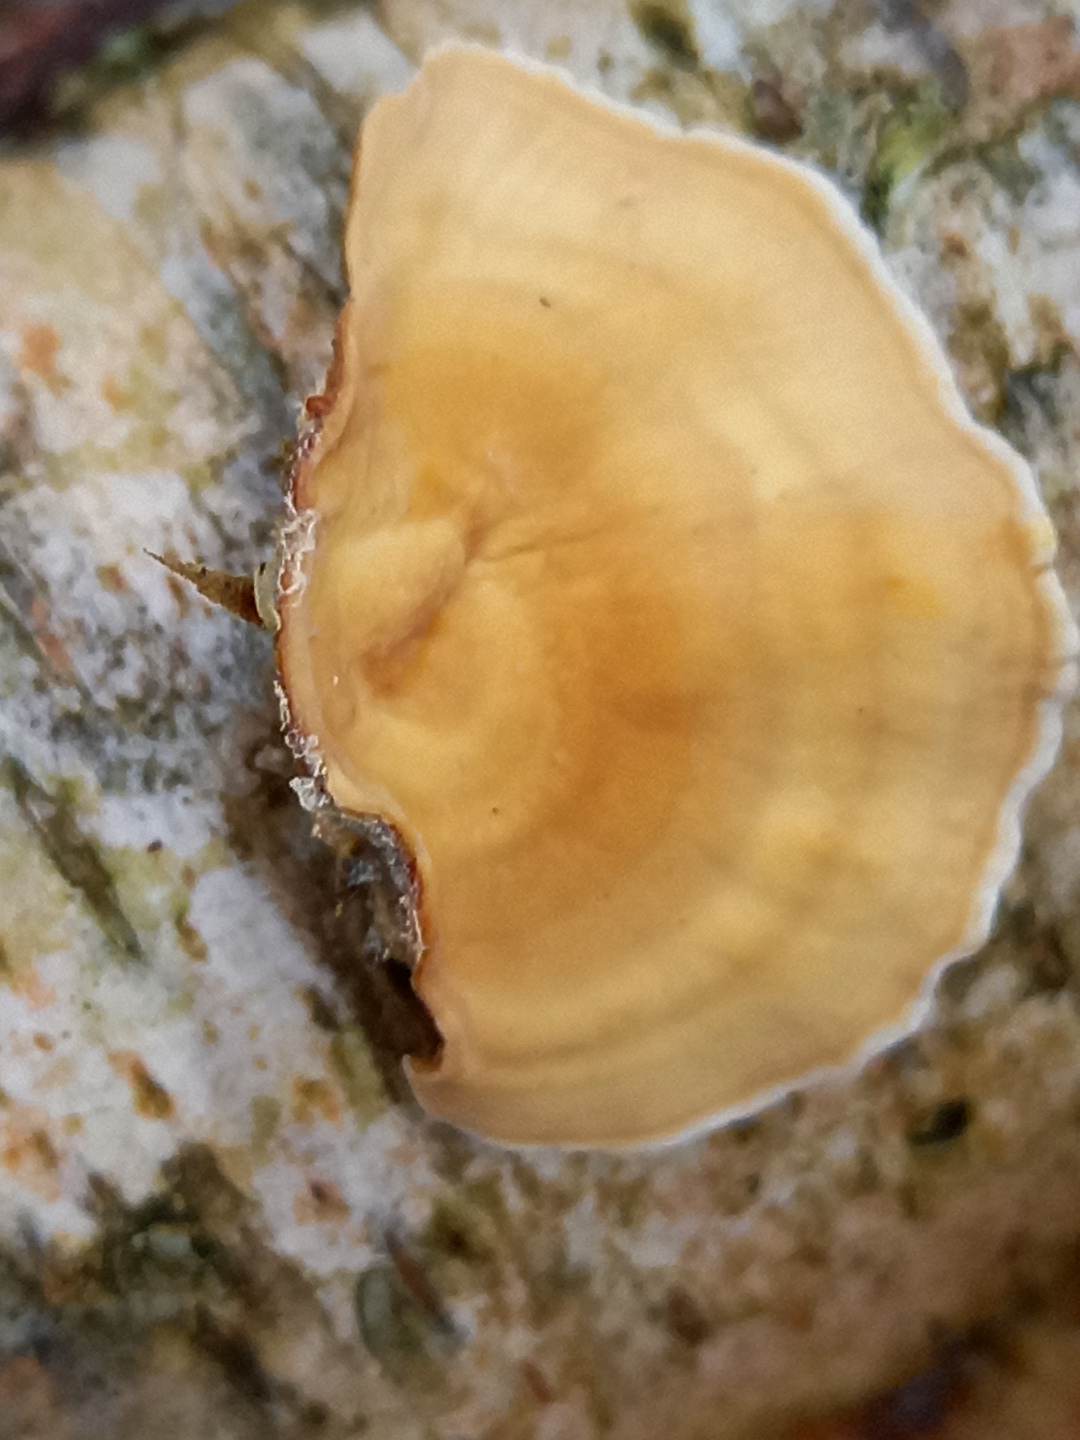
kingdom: Fungi
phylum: Basidiomycota
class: Agaricomycetes
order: Russulales
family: Stereaceae
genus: Stereum
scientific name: Stereum subtomentosum
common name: smuk lædersvamp
